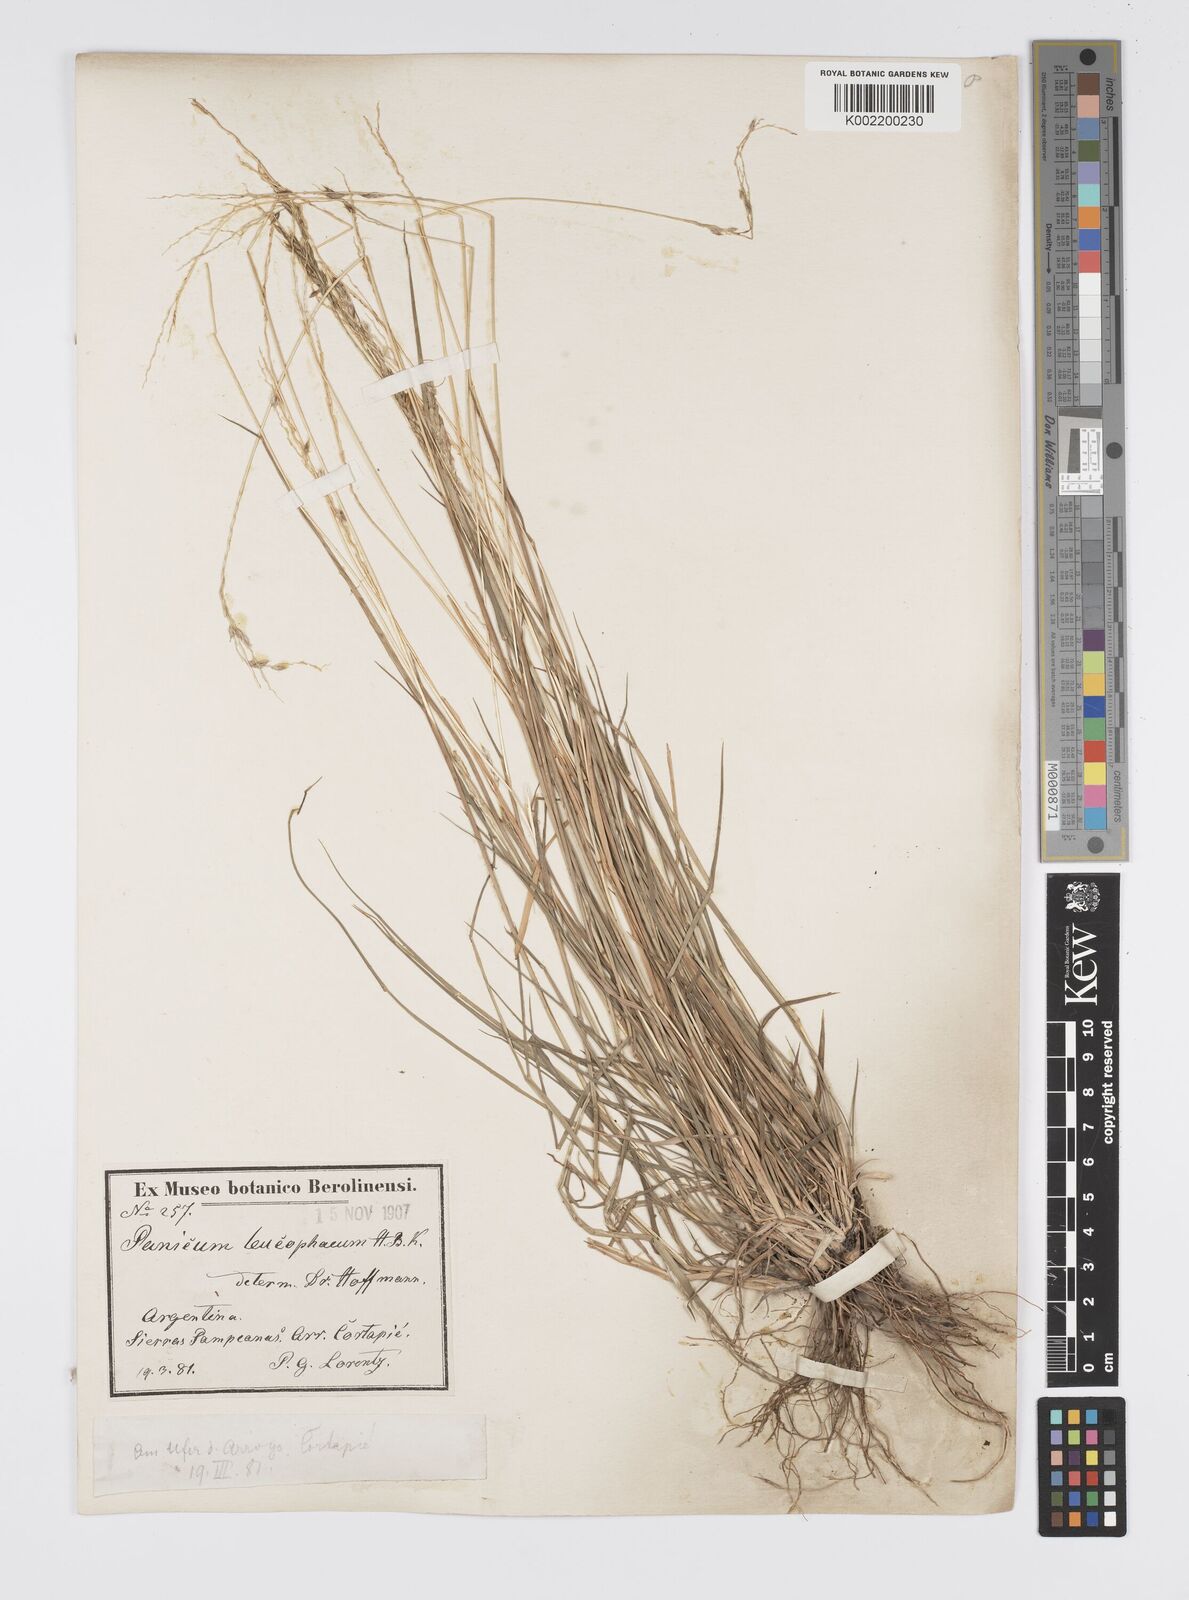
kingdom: Plantae
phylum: Tracheophyta
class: Liliopsida
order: Poales
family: Poaceae
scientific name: Poaceae
